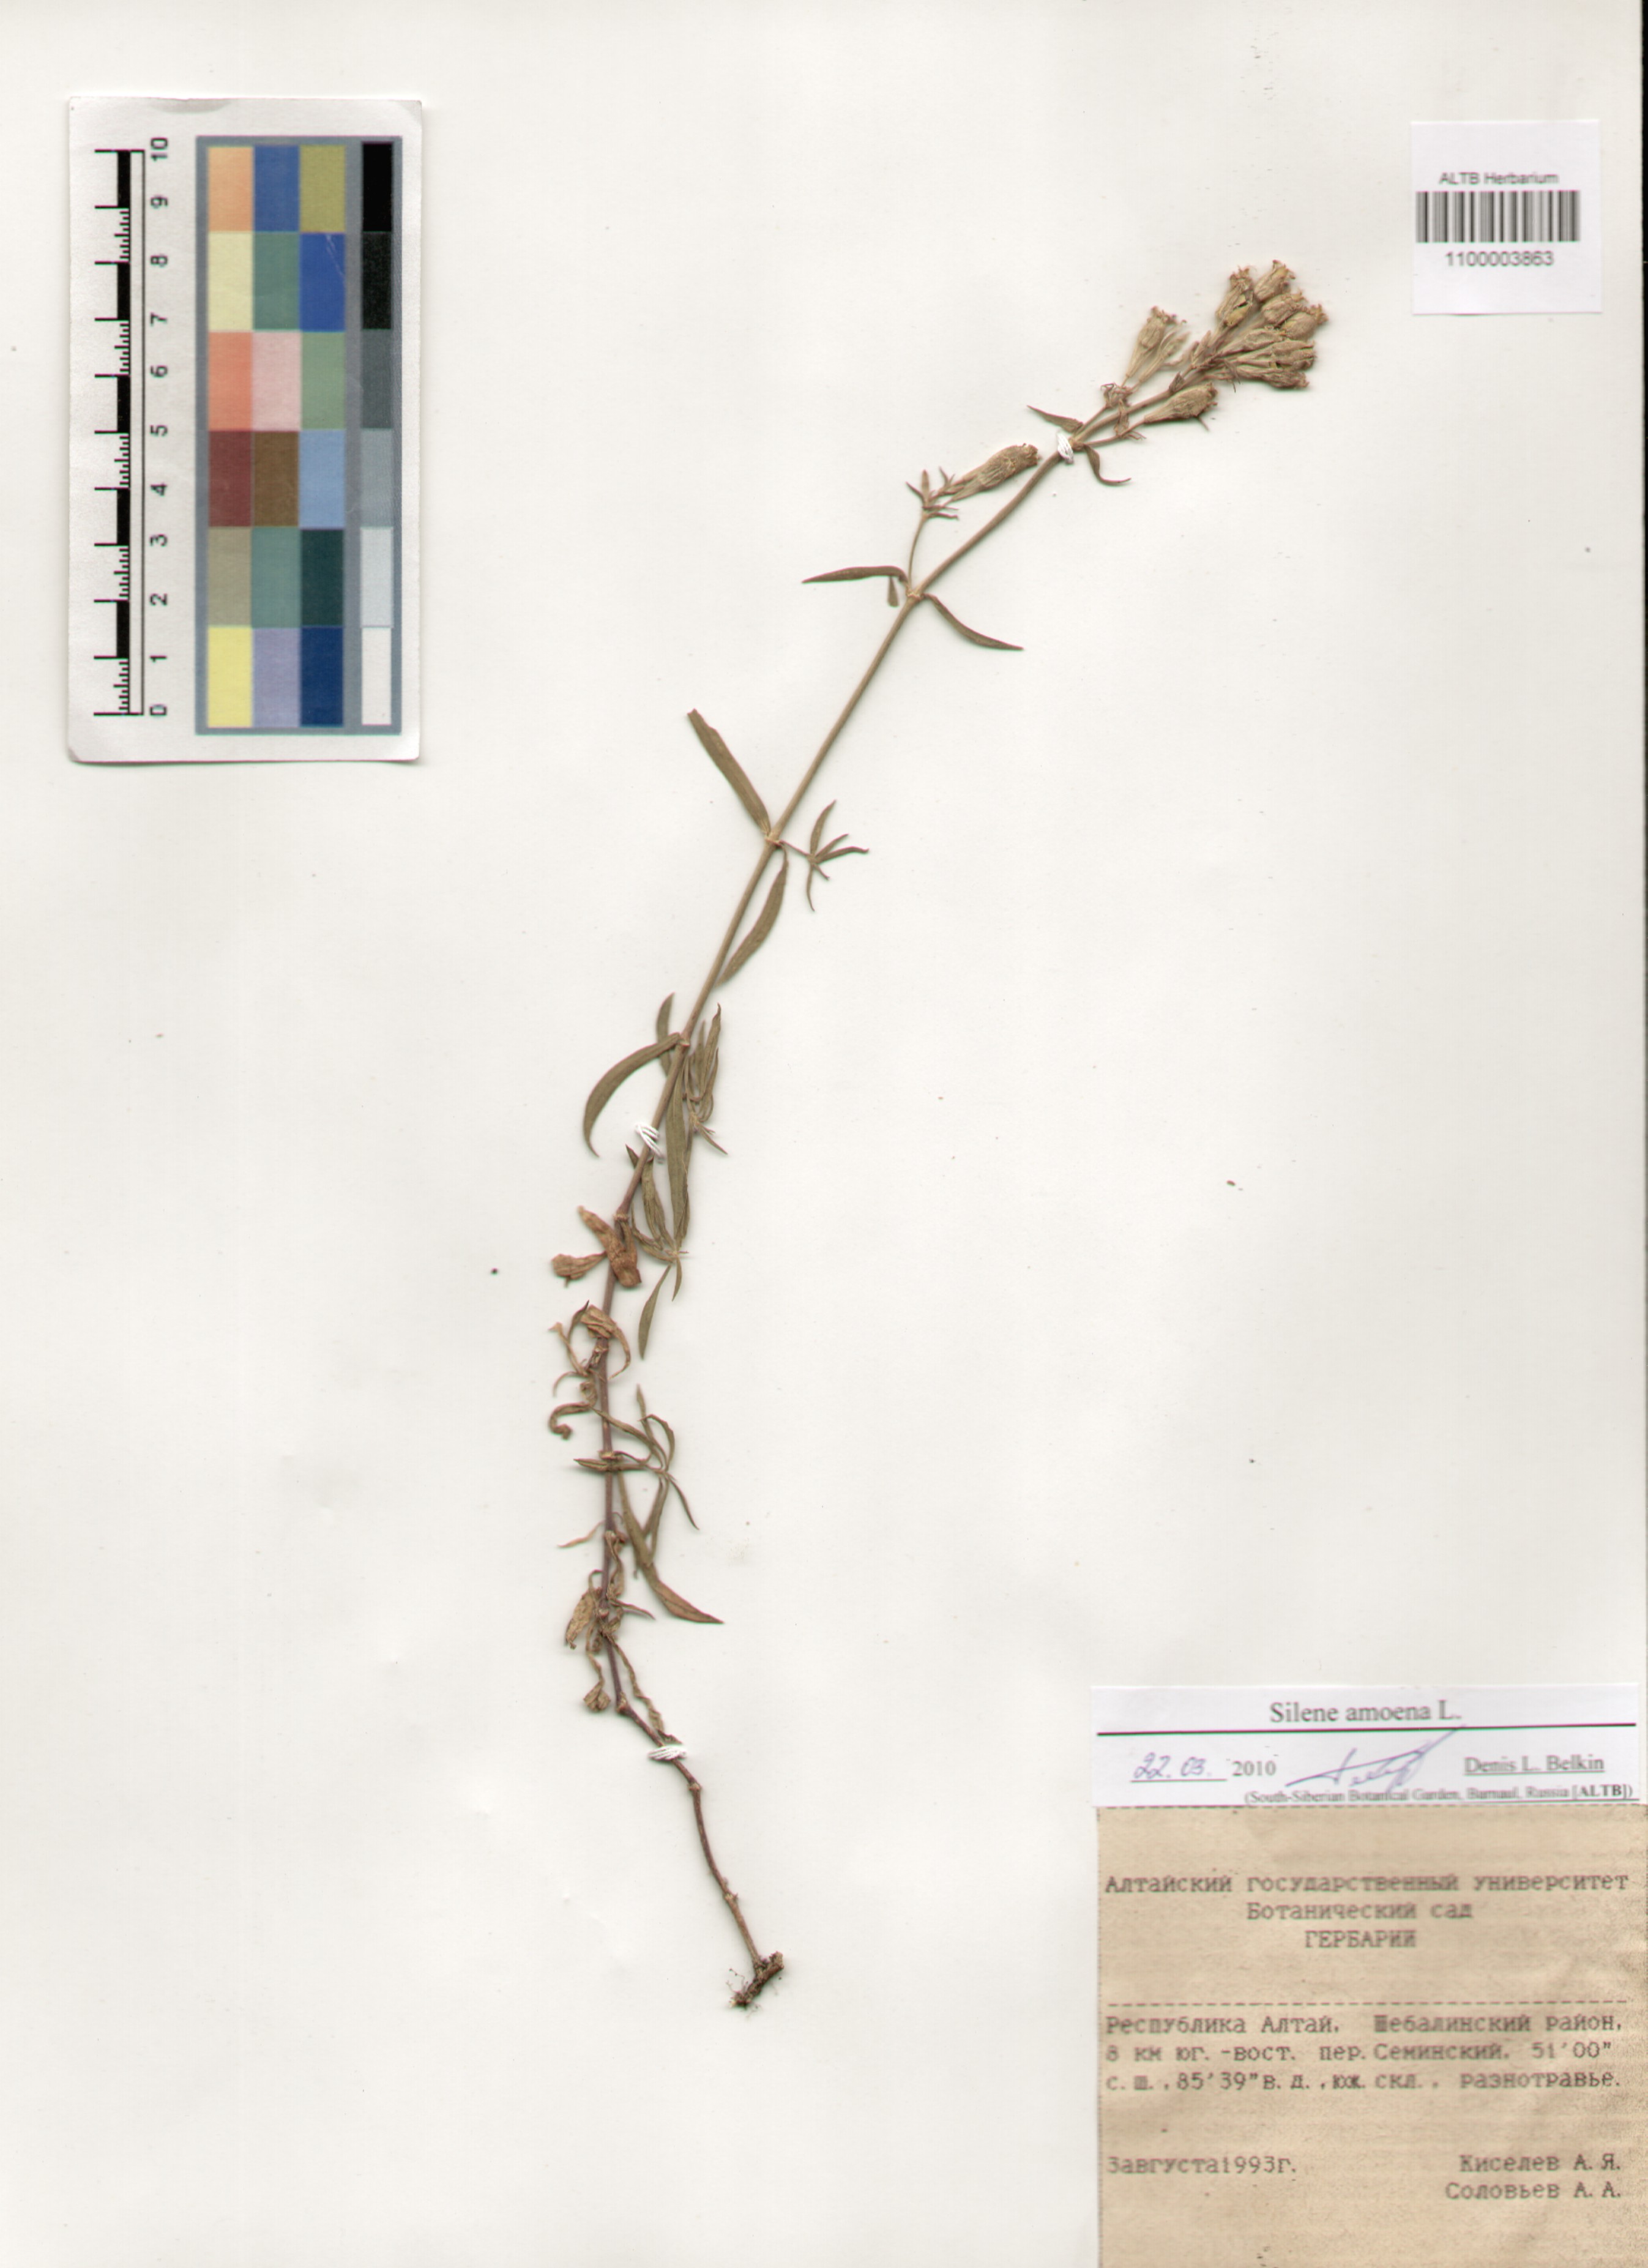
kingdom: Plantae
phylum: Tracheophyta
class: Magnoliopsida
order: Caryophyllales
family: Caryophyllaceae
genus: Silene
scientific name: Silene amoena
